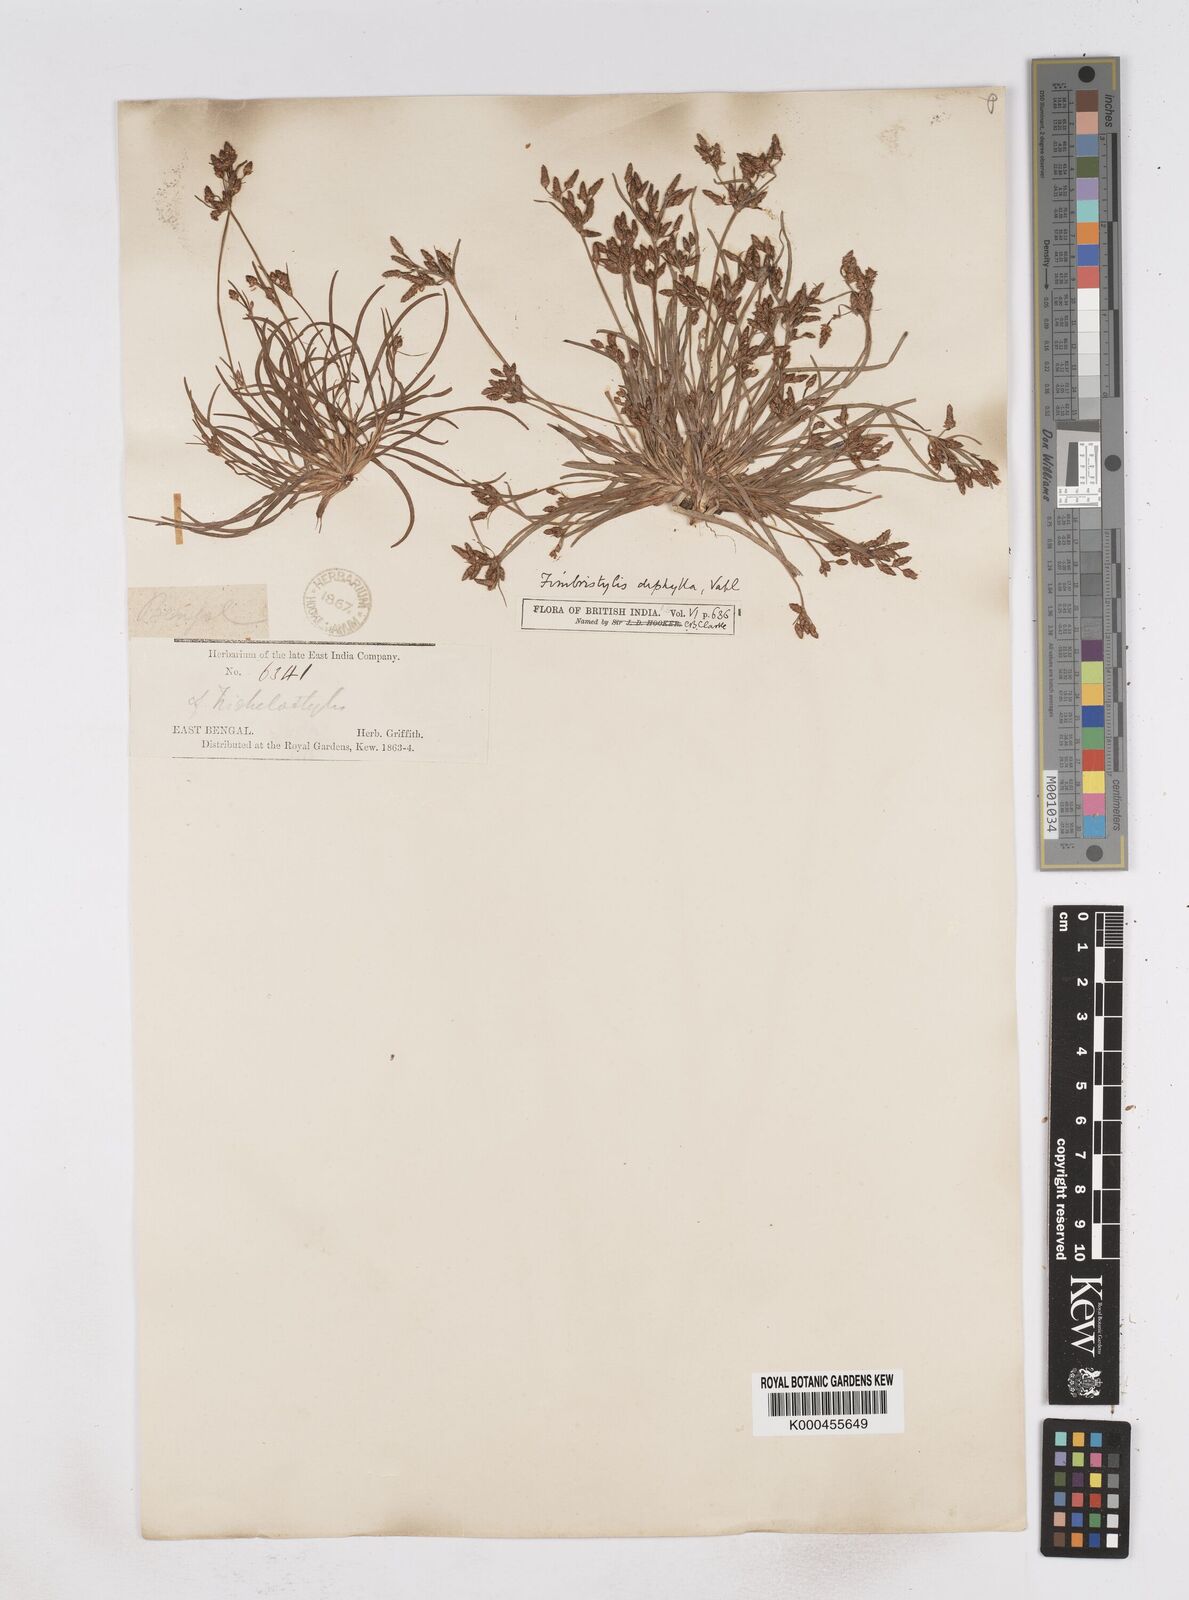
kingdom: Plantae
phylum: Tracheophyta
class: Liliopsida
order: Poales
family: Cyperaceae
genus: Fimbristylis
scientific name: Fimbristylis dichotoma
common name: Forked fimbry
